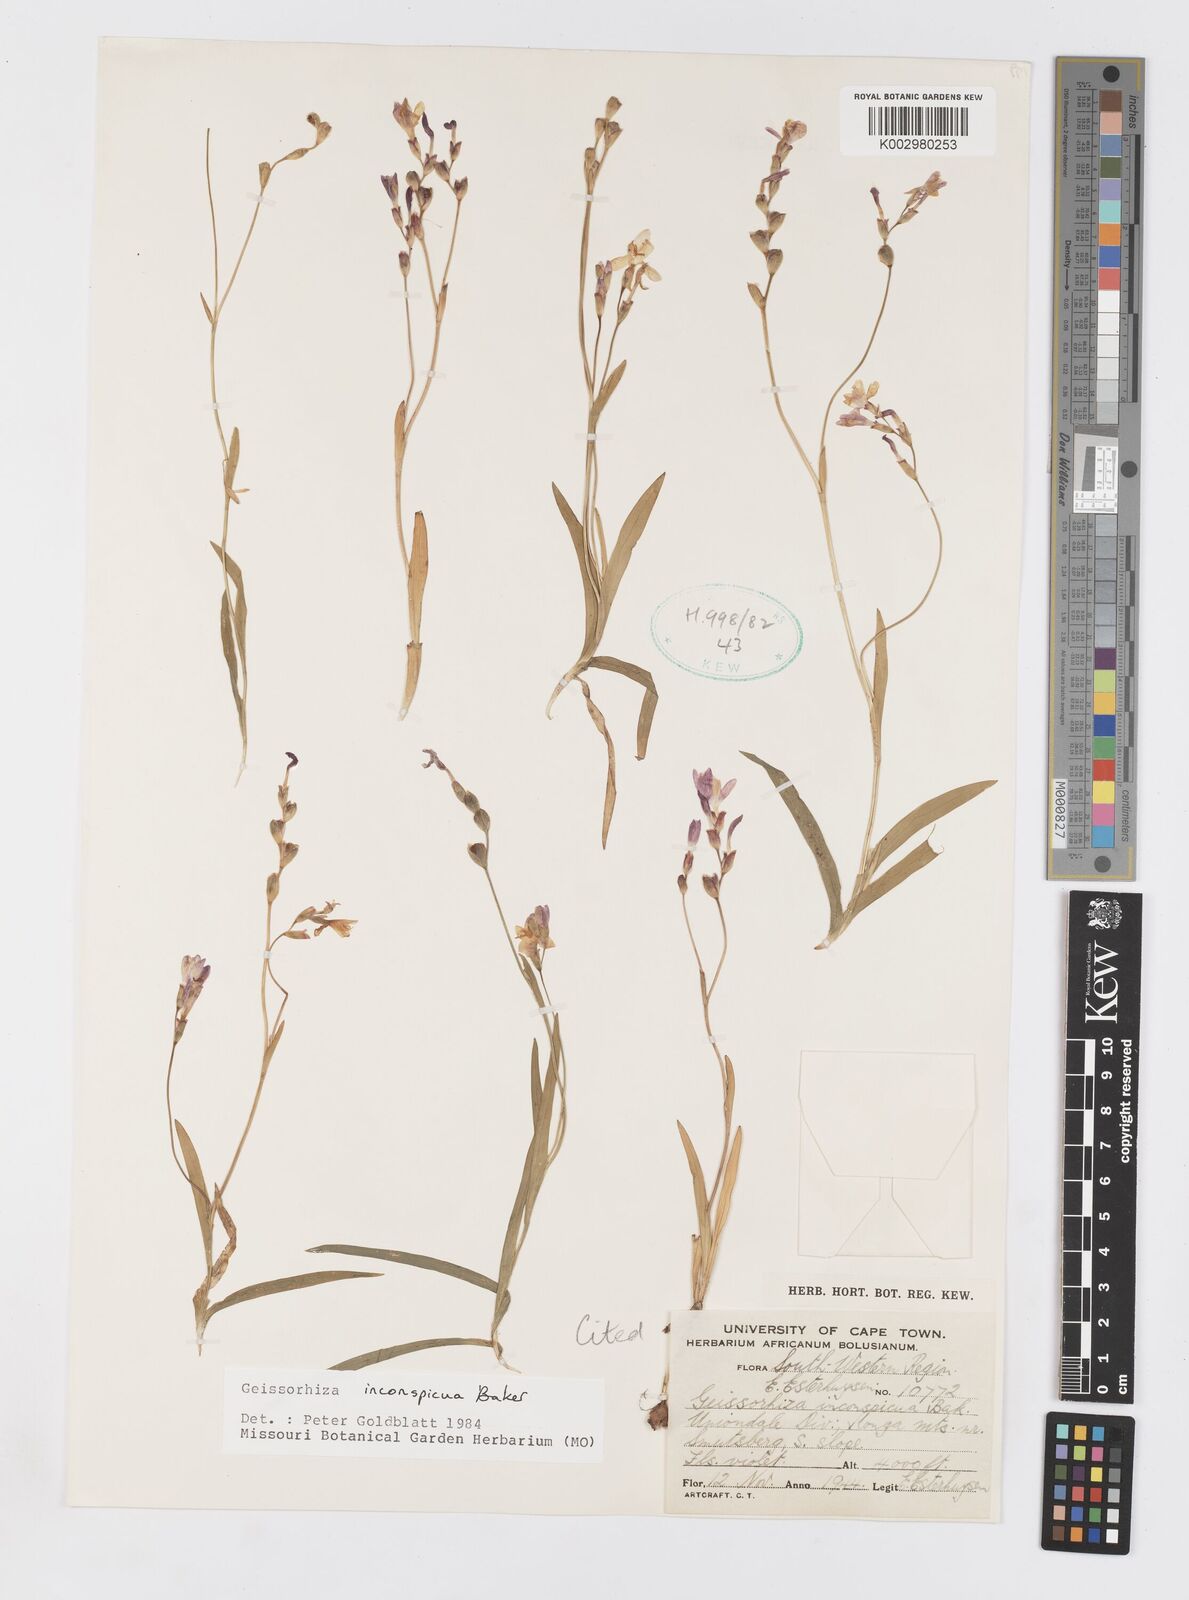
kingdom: Plantae
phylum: Tracheophyta
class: Liliopsida
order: Asparagales
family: Iridaceae
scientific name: Iridaceae
